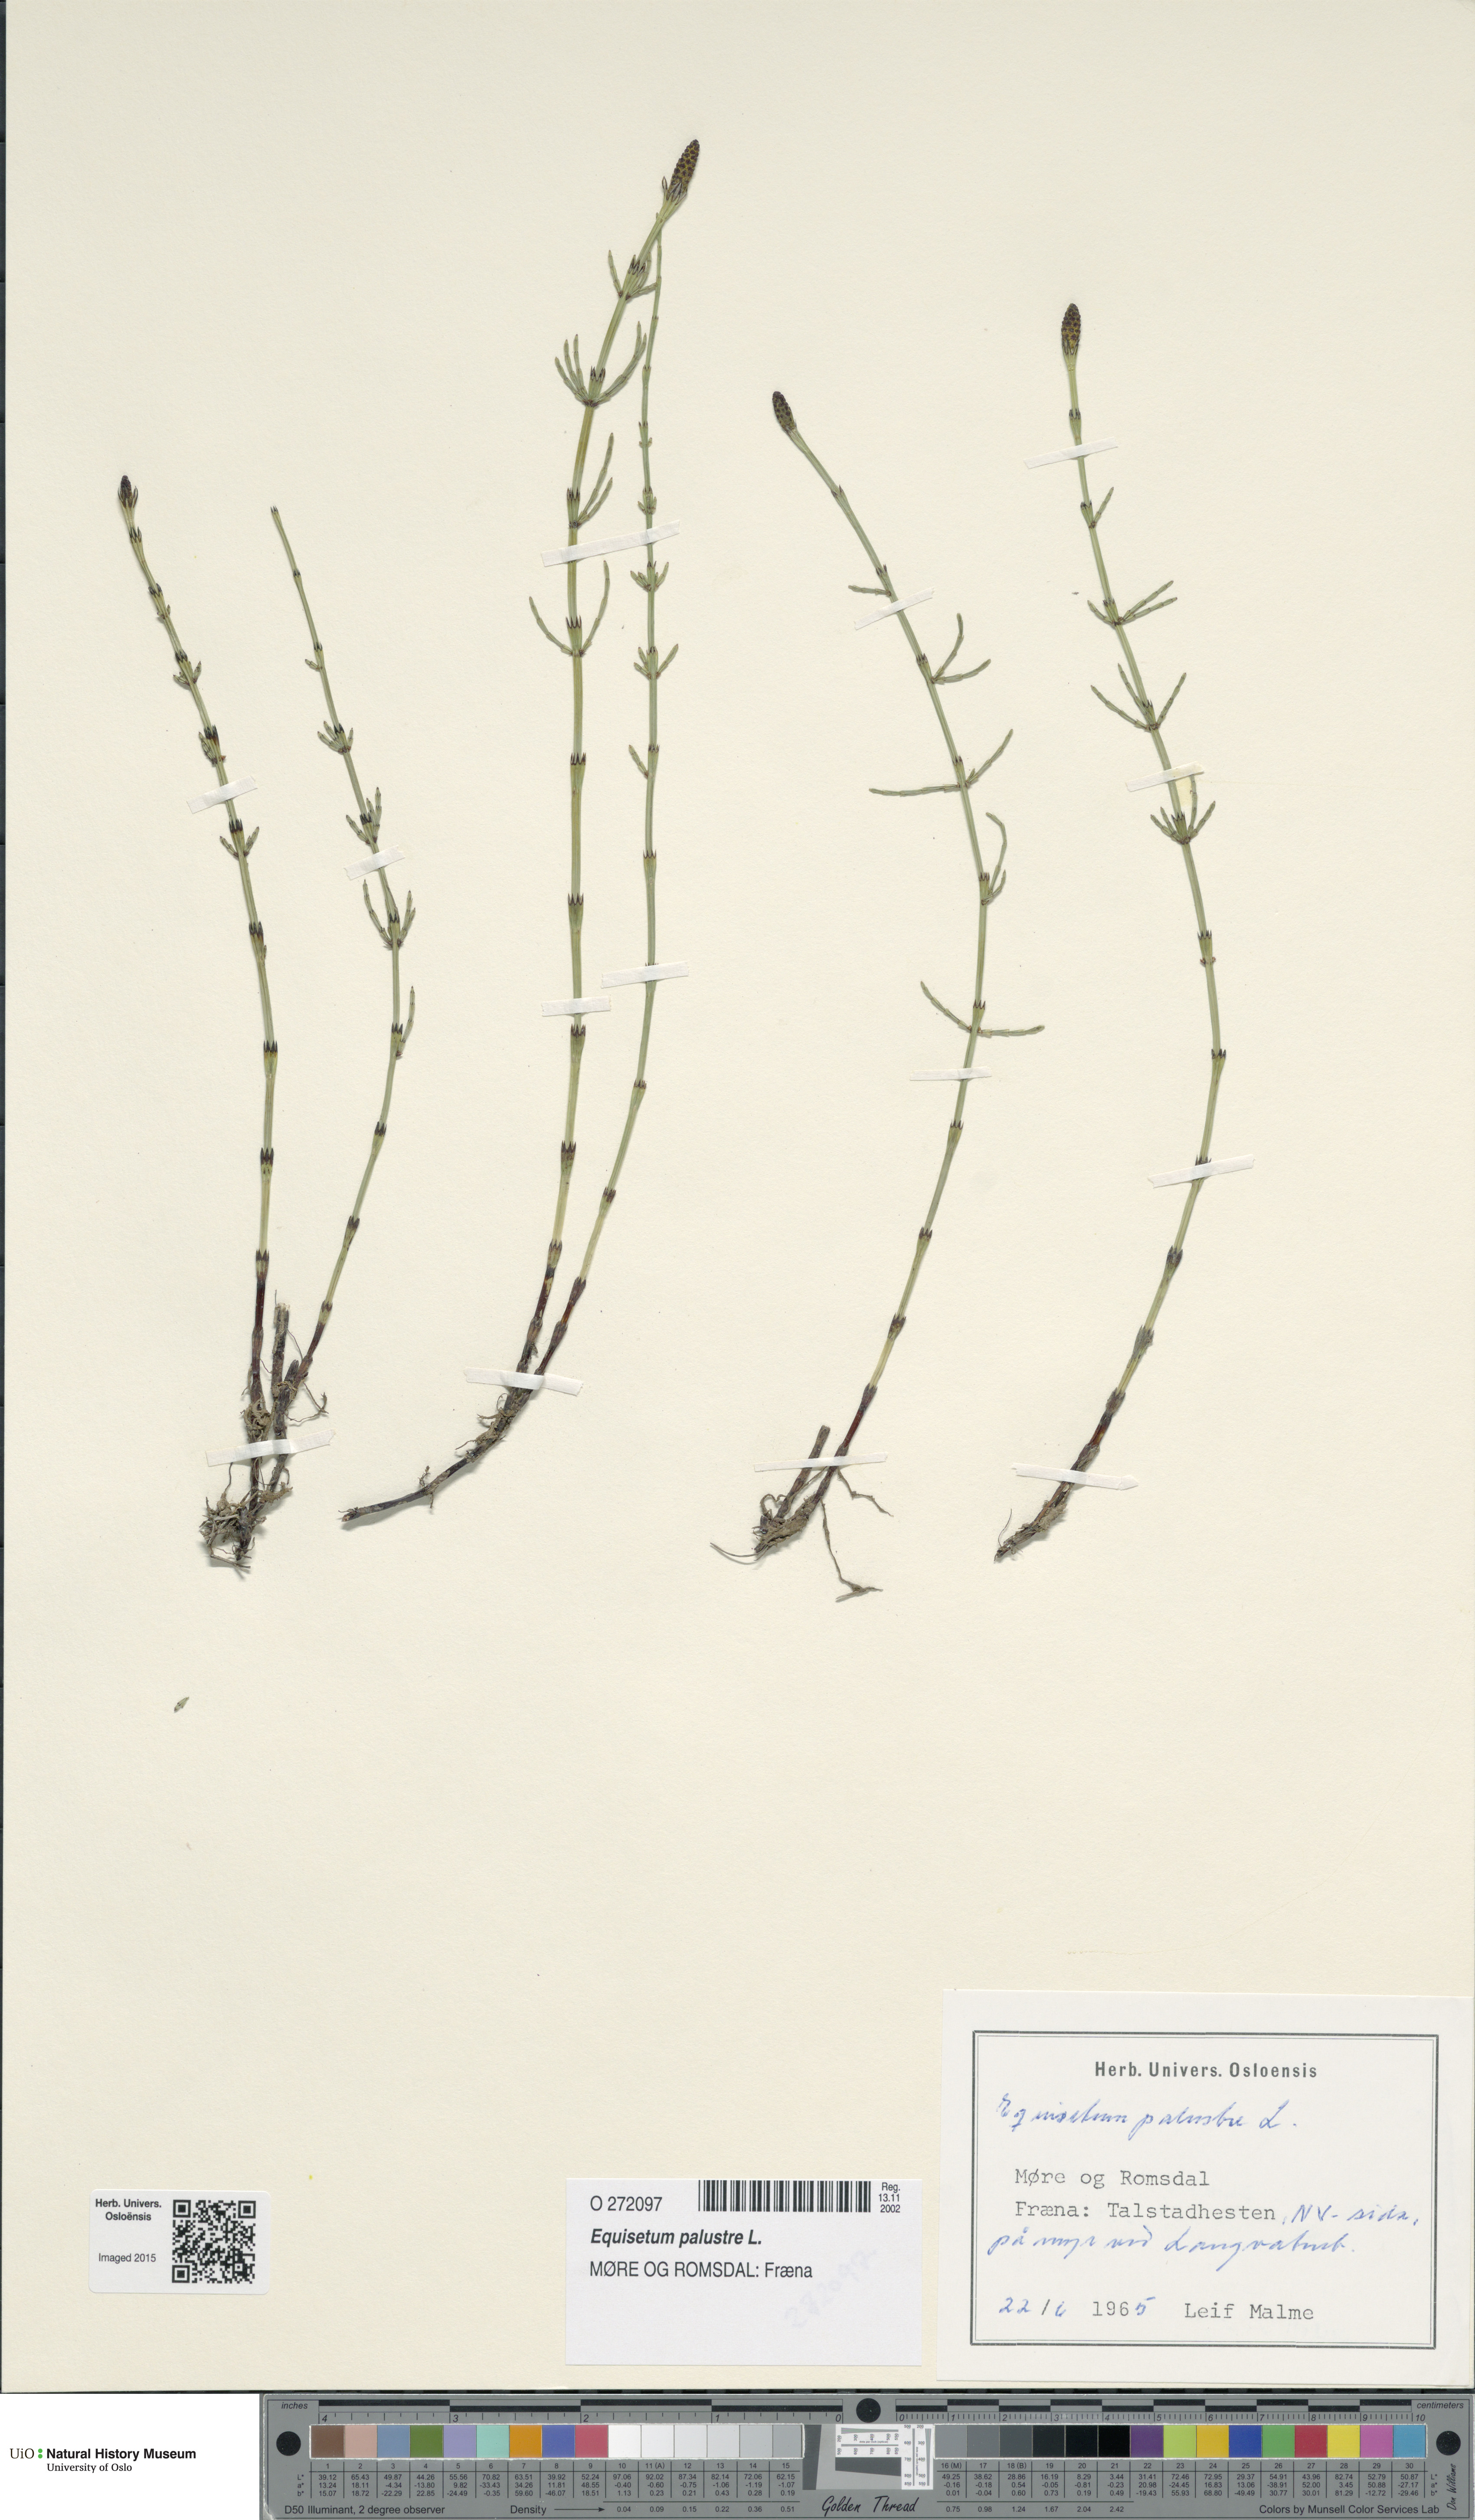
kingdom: Plantae
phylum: Tracheophyta
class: Polypodiopsida
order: Equisetales
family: Equisetaceae
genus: Equisetum
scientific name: Equisetum palustre
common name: Marsh horsetail
